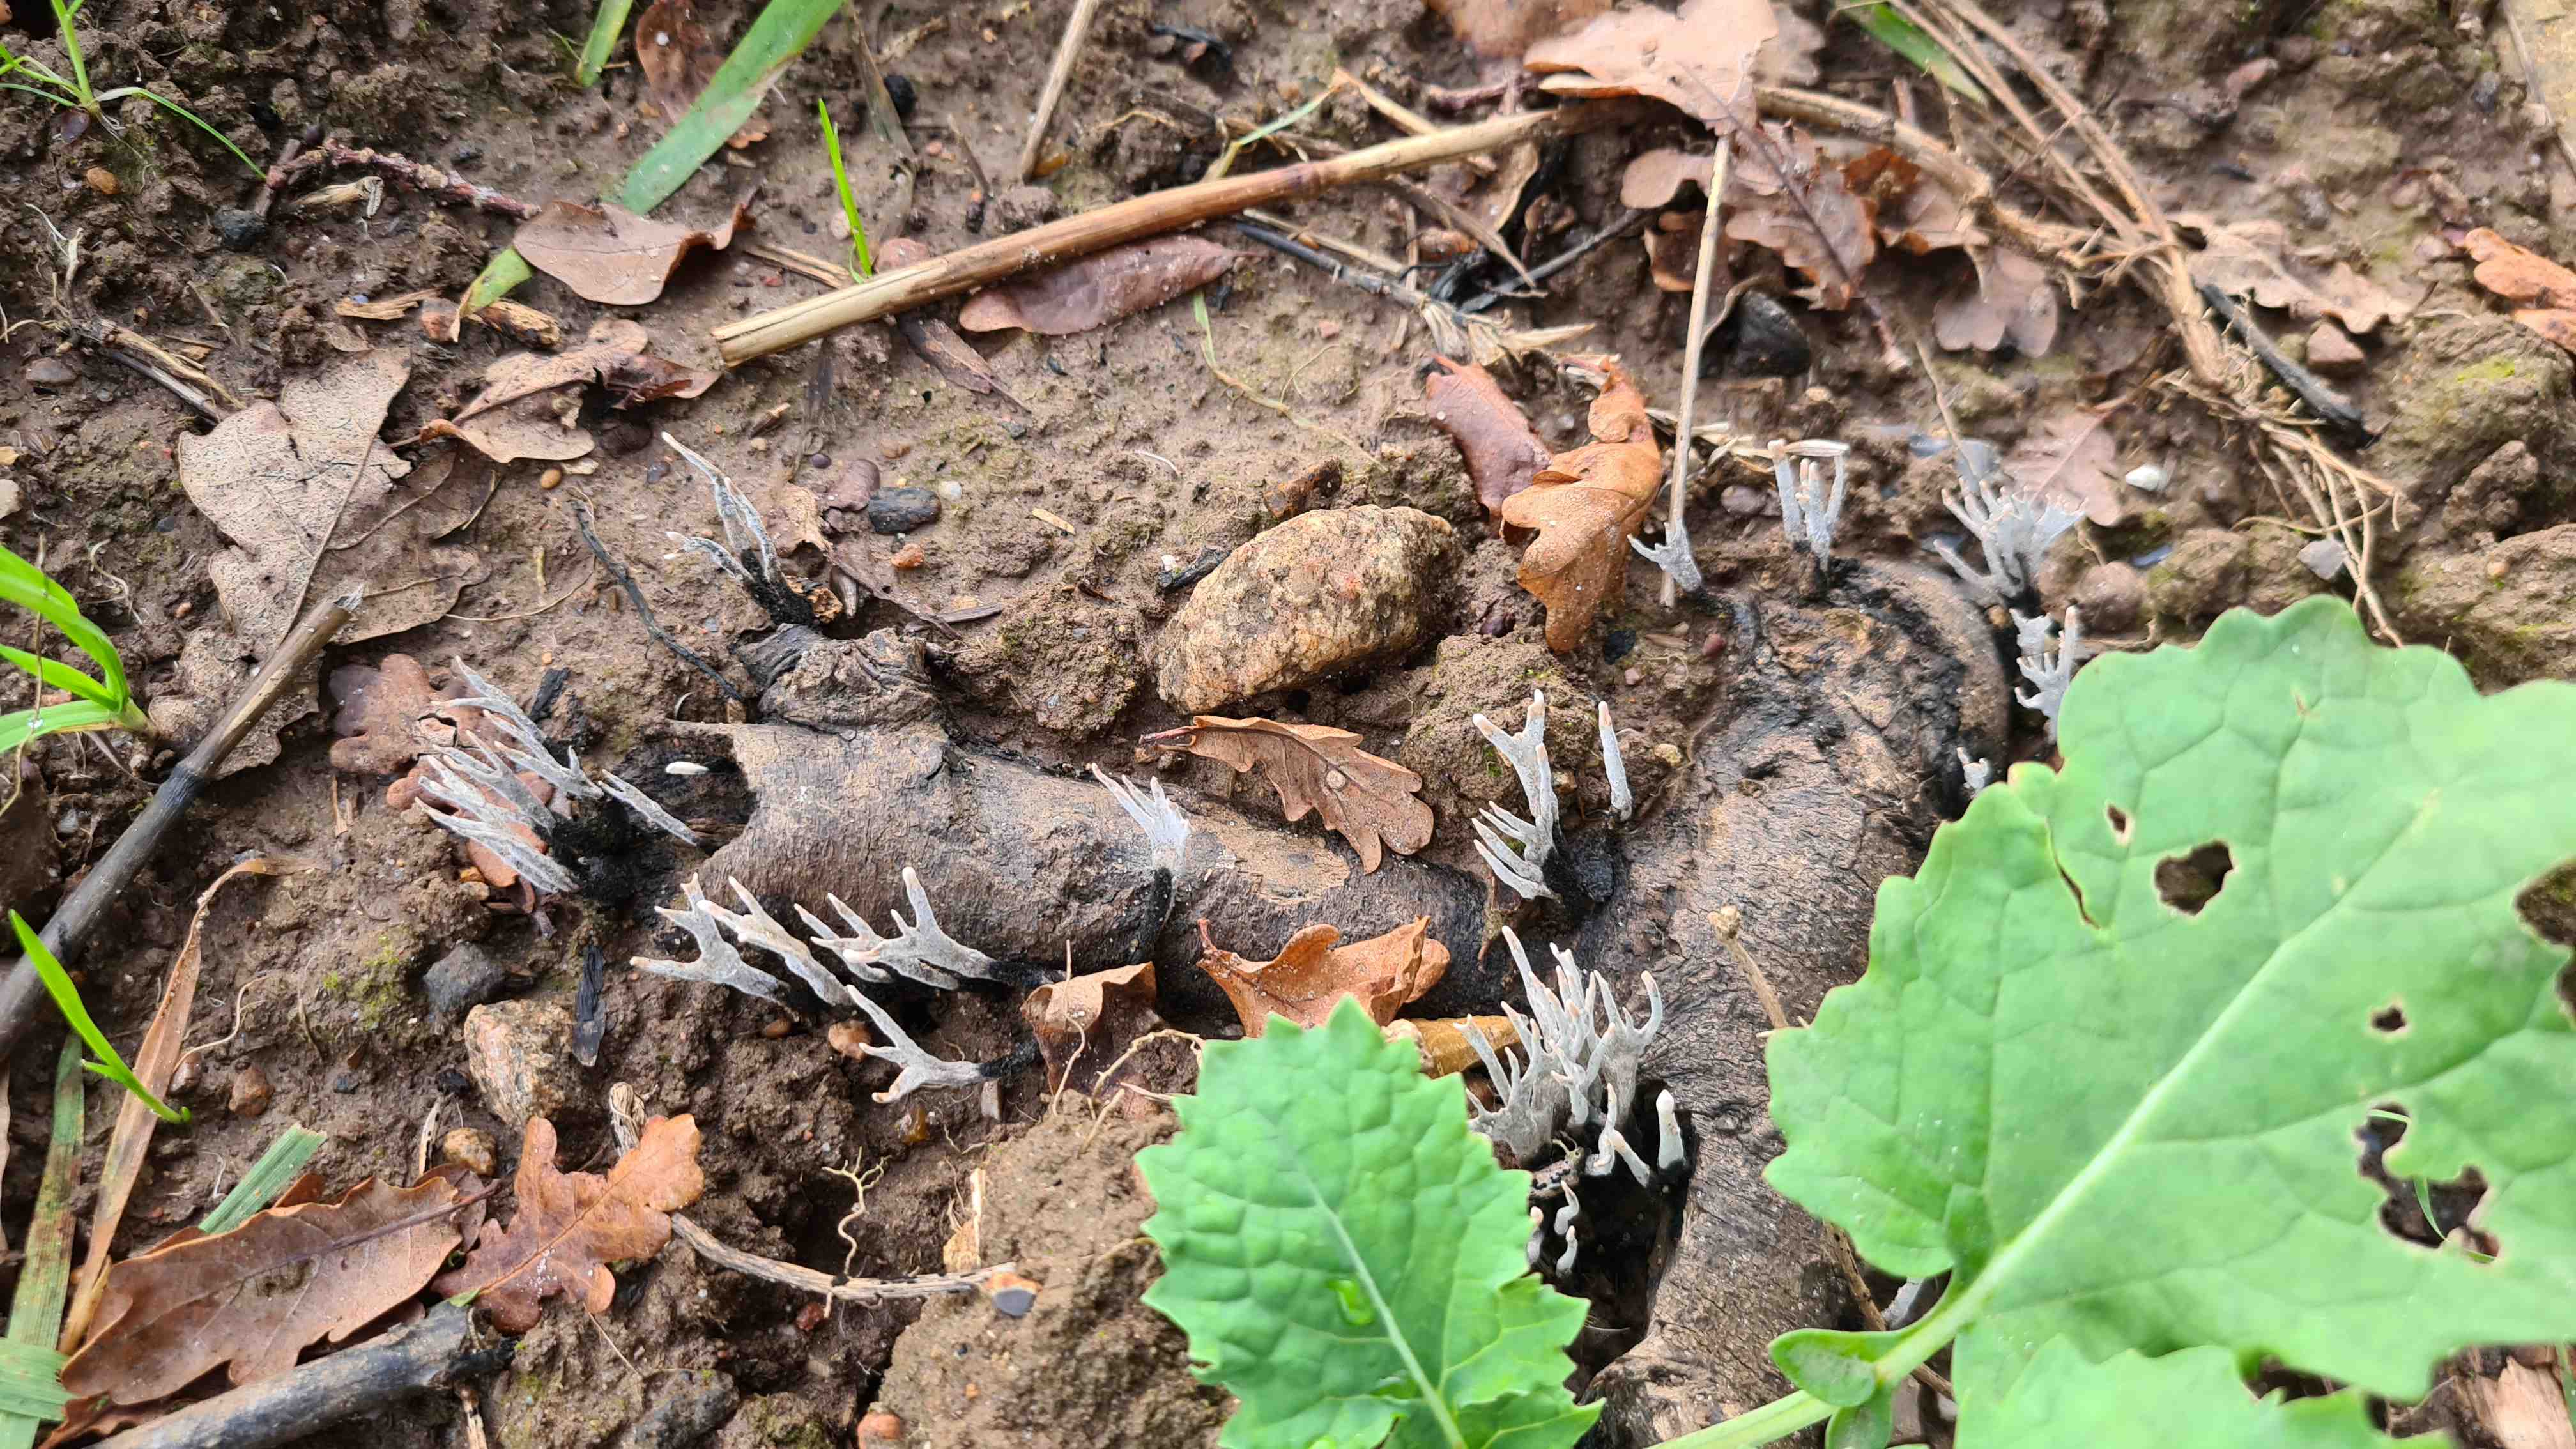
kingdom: Fungi
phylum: Ascomycota
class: Sordariomycetes
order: Xylariales
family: Xylariaceae
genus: Xylaria
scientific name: Xylaria hypoxylon
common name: grenet stødsvamp
